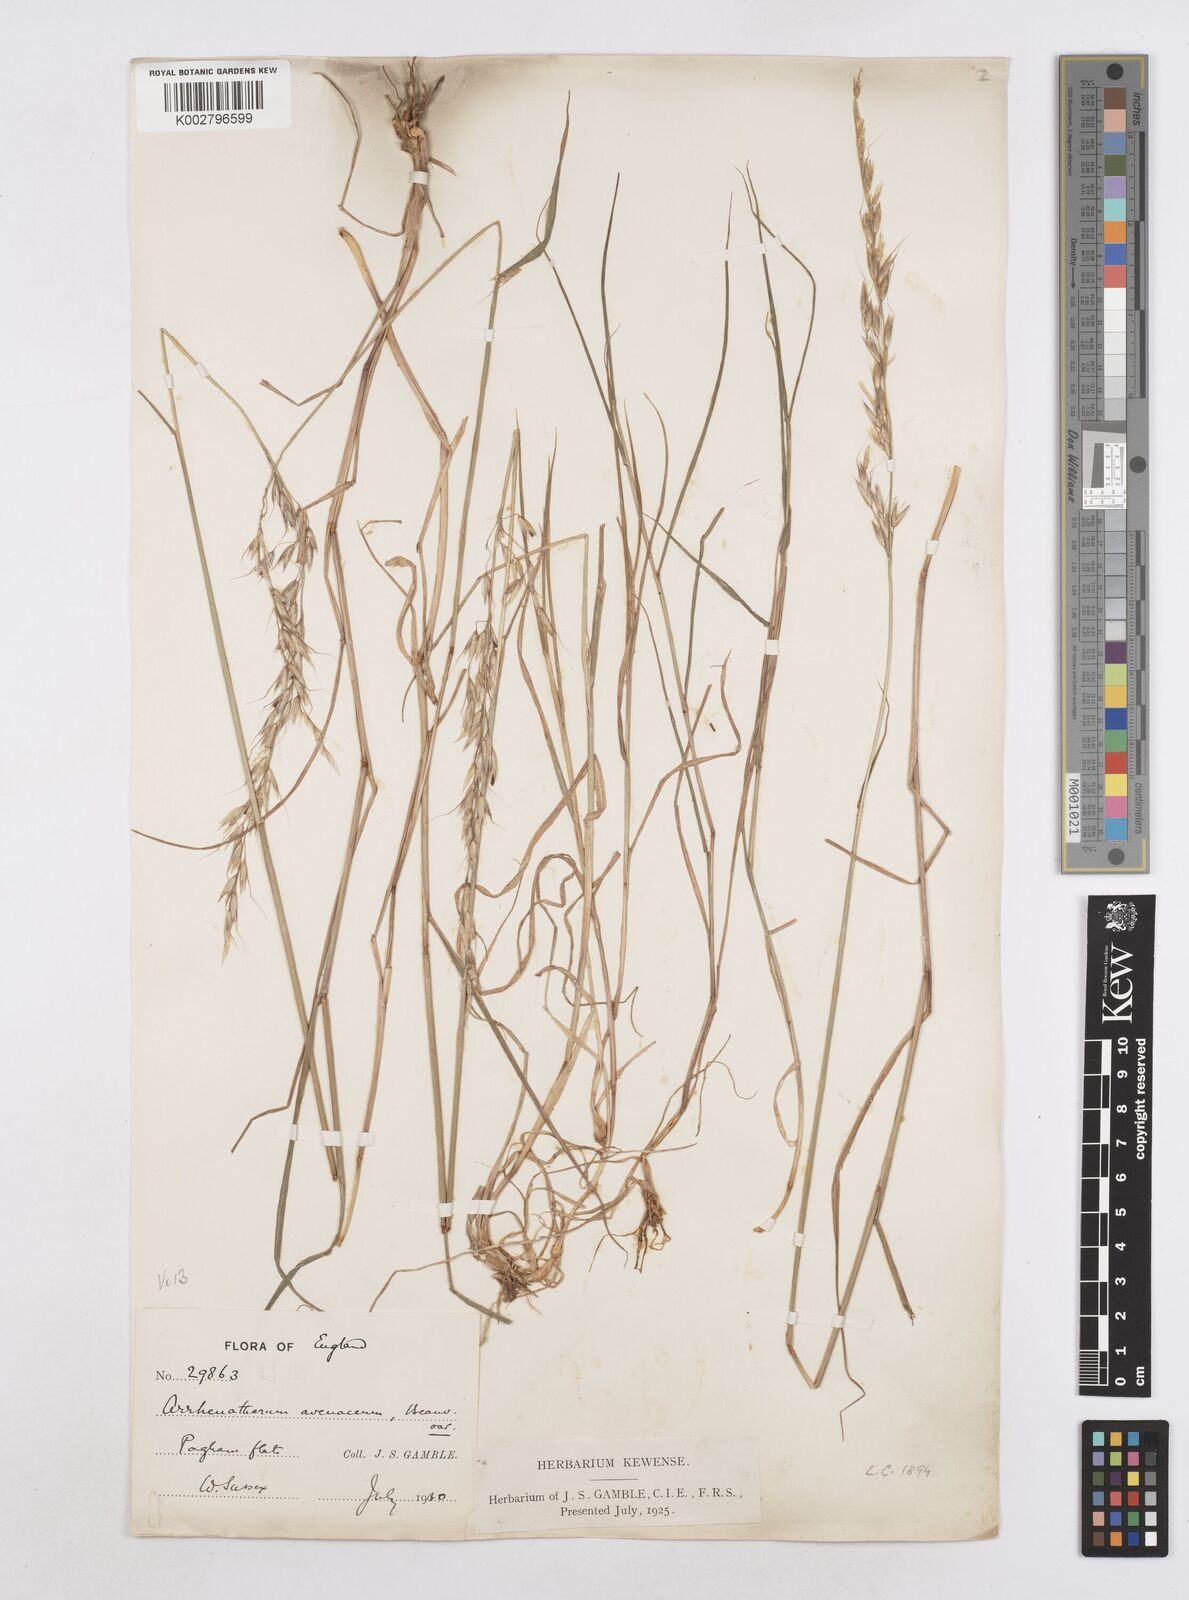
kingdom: Plantae
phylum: Tracheophyta
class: Liliopsida
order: Poales
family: Poaceae
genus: Arrhenatherum
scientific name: Arrhenatherum elatius
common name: Tall oatgrass
